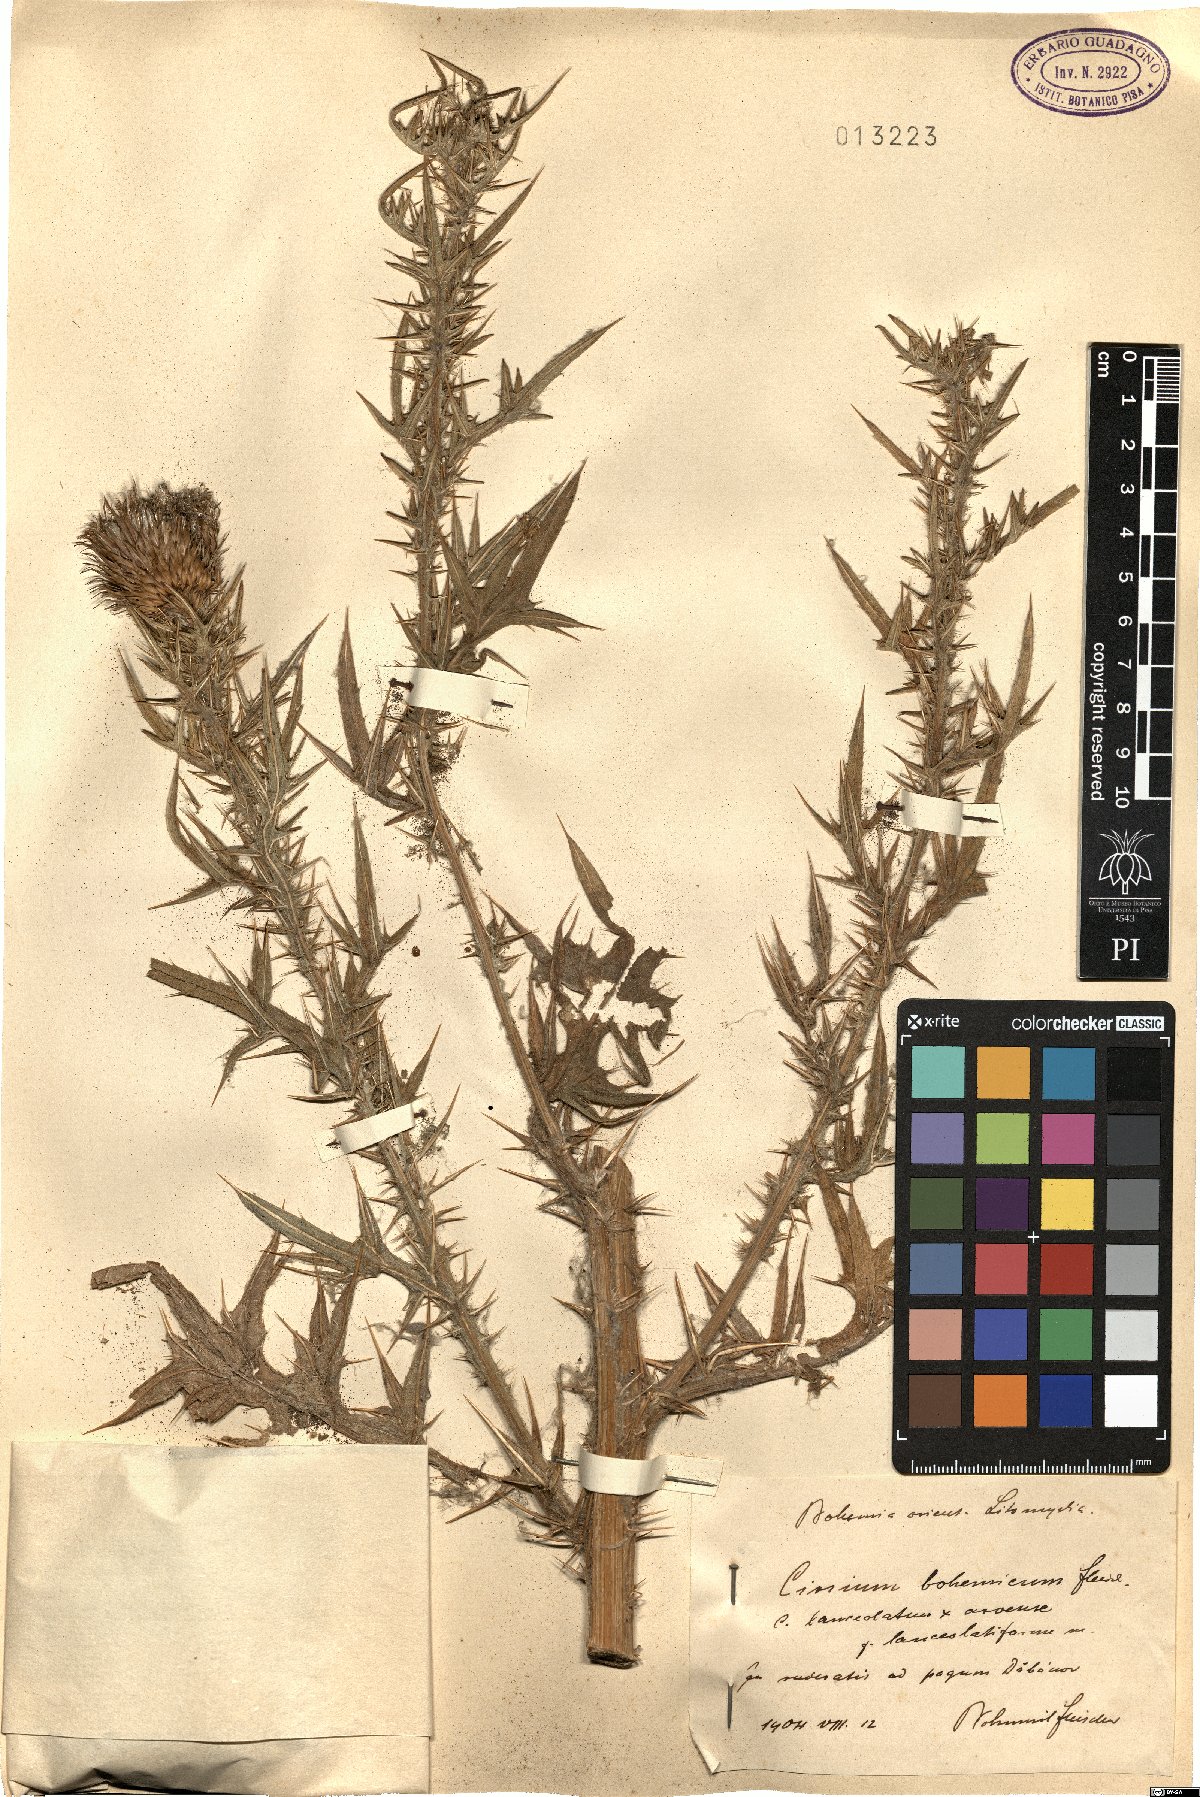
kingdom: Plantae
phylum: Tracheophyta
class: Magnoliopsida
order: Asterales
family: Asteraceae
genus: Cirsium
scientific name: Cirsium bohemicum
